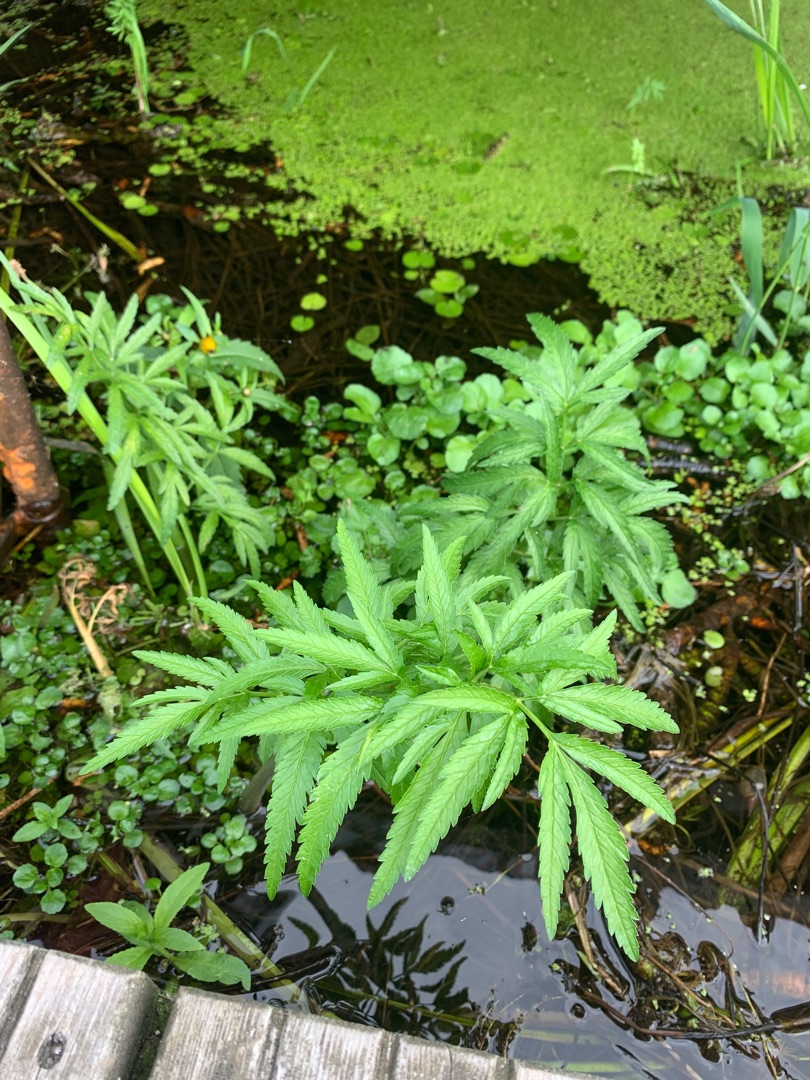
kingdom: Plantae
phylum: Tracheophyta
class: Magnoliopsida
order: Asterales
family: Asteraceae
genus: Bidens
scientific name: Bidens tripartita
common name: Fliget brøndsel
